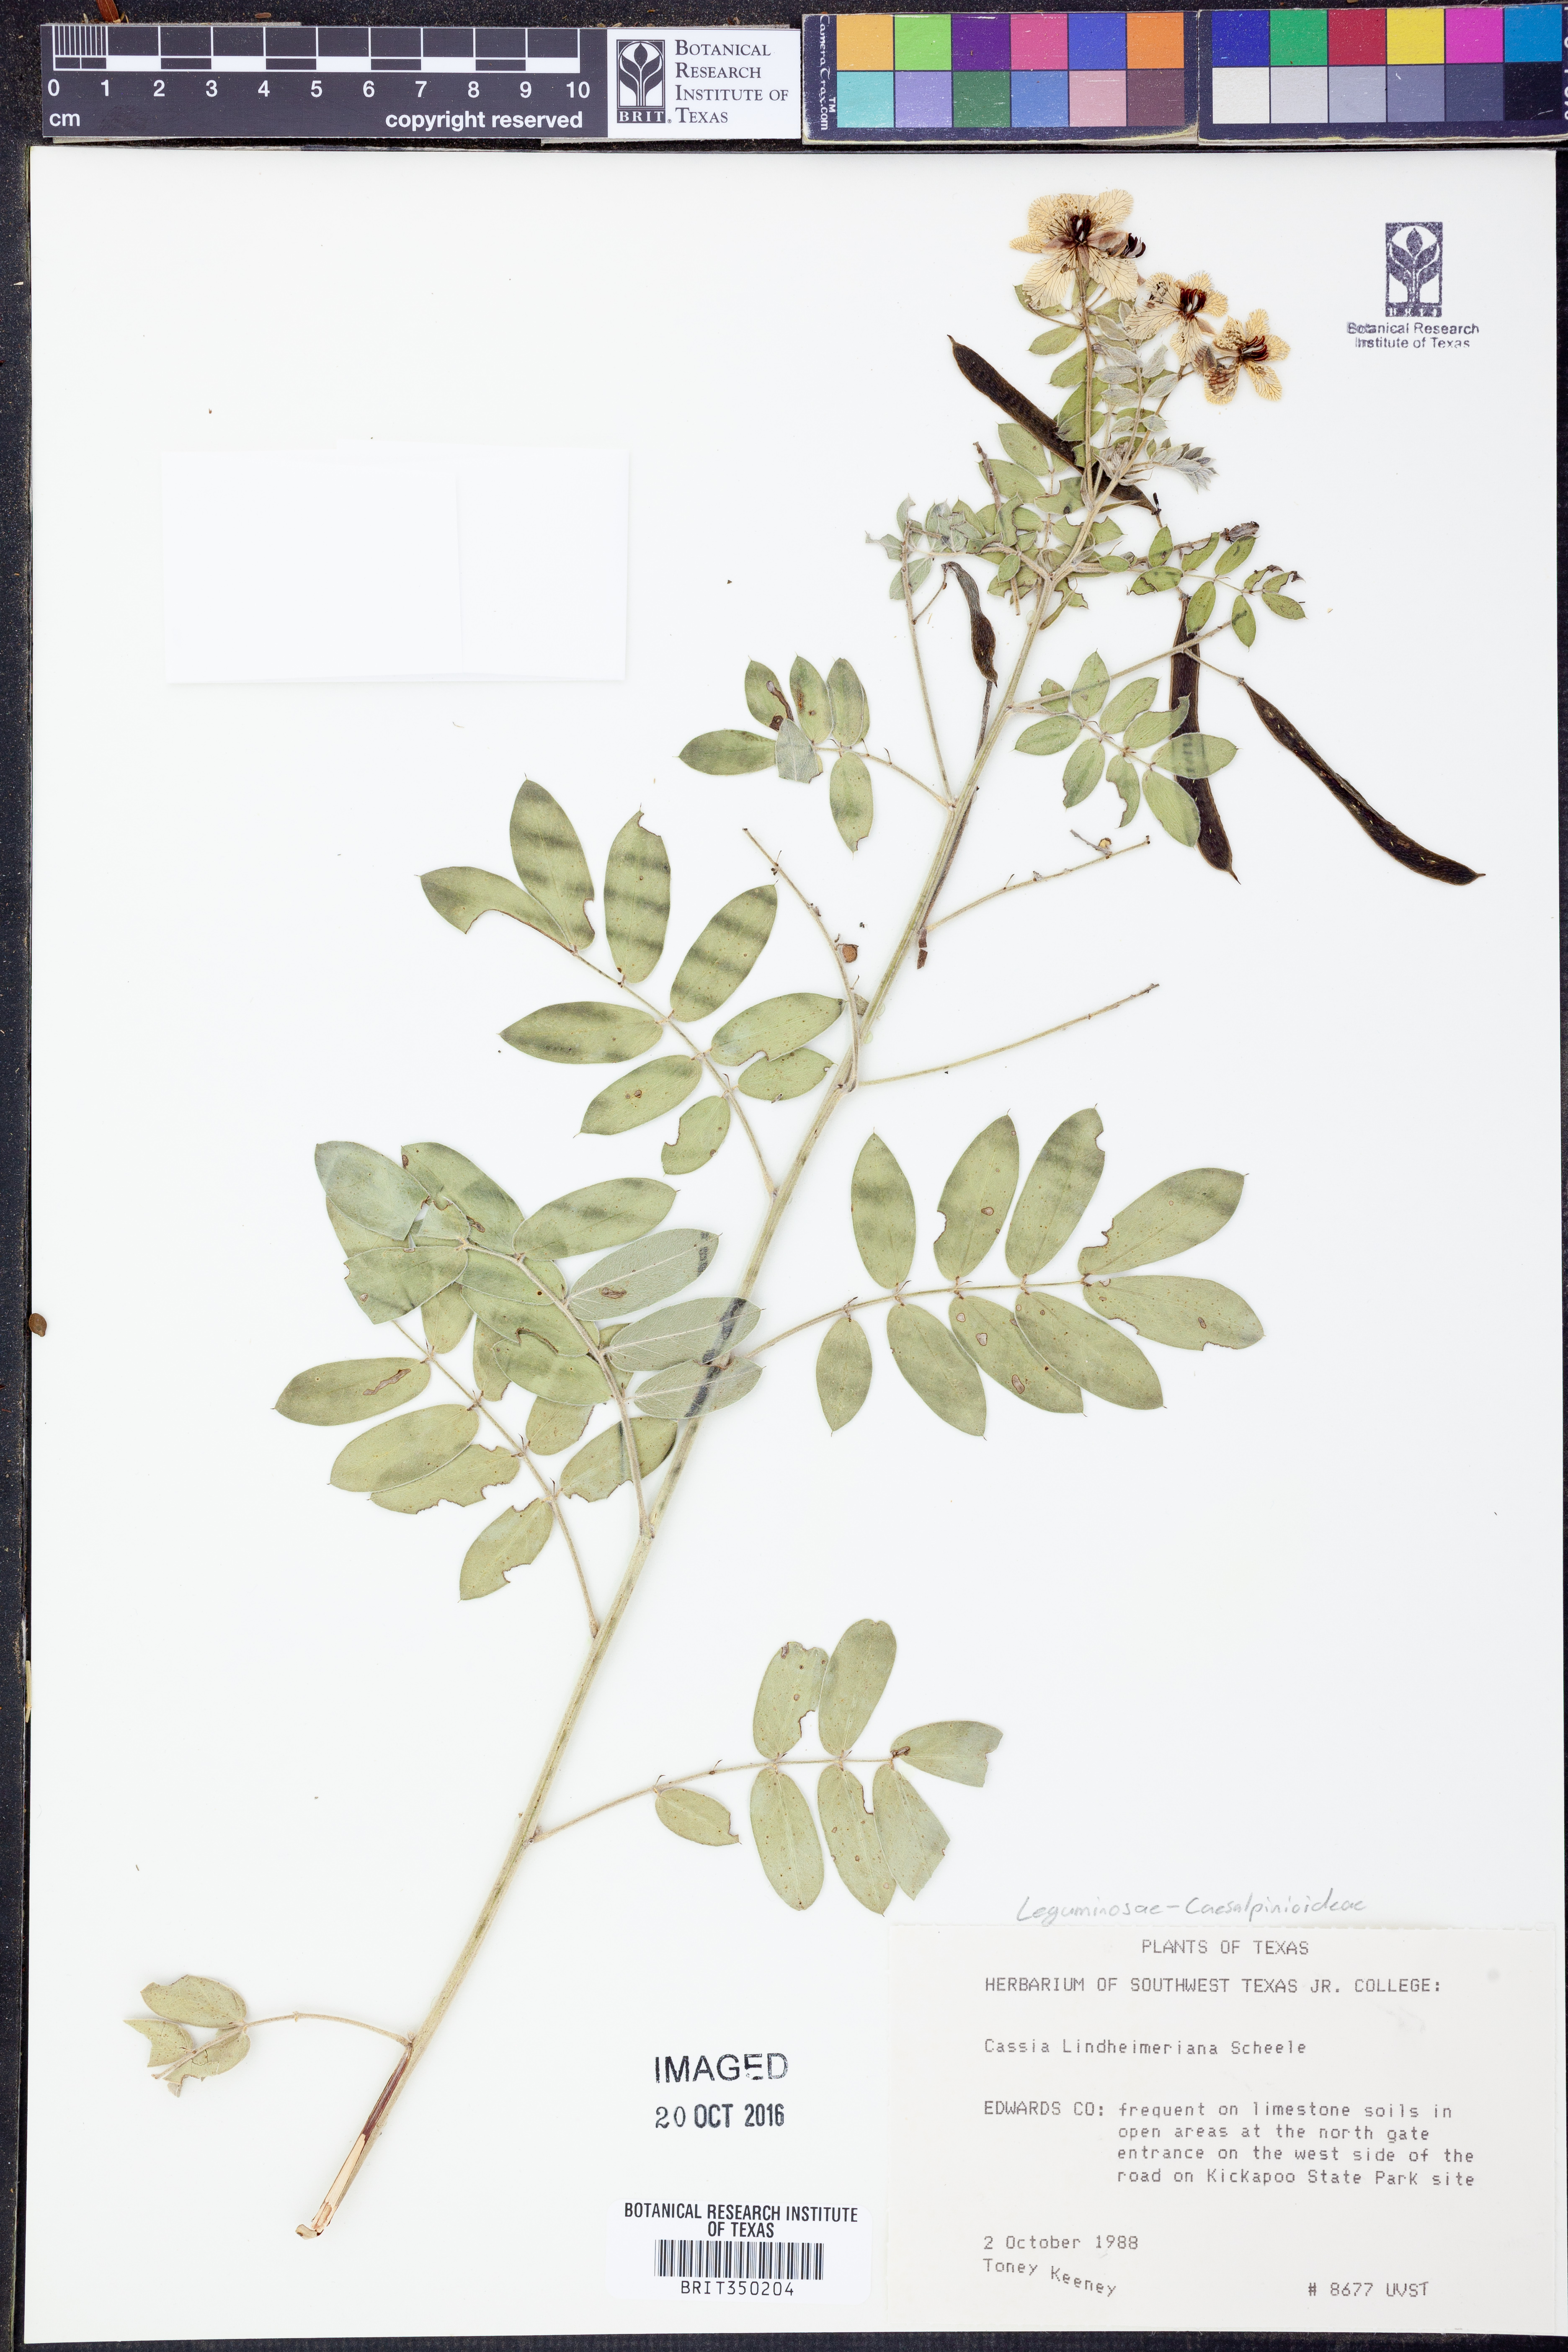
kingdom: Plantae
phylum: Tracheophyta
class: Magnoliopsida
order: Fabales
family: Fabaceae
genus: Senna
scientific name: Senna lindheimeriana
